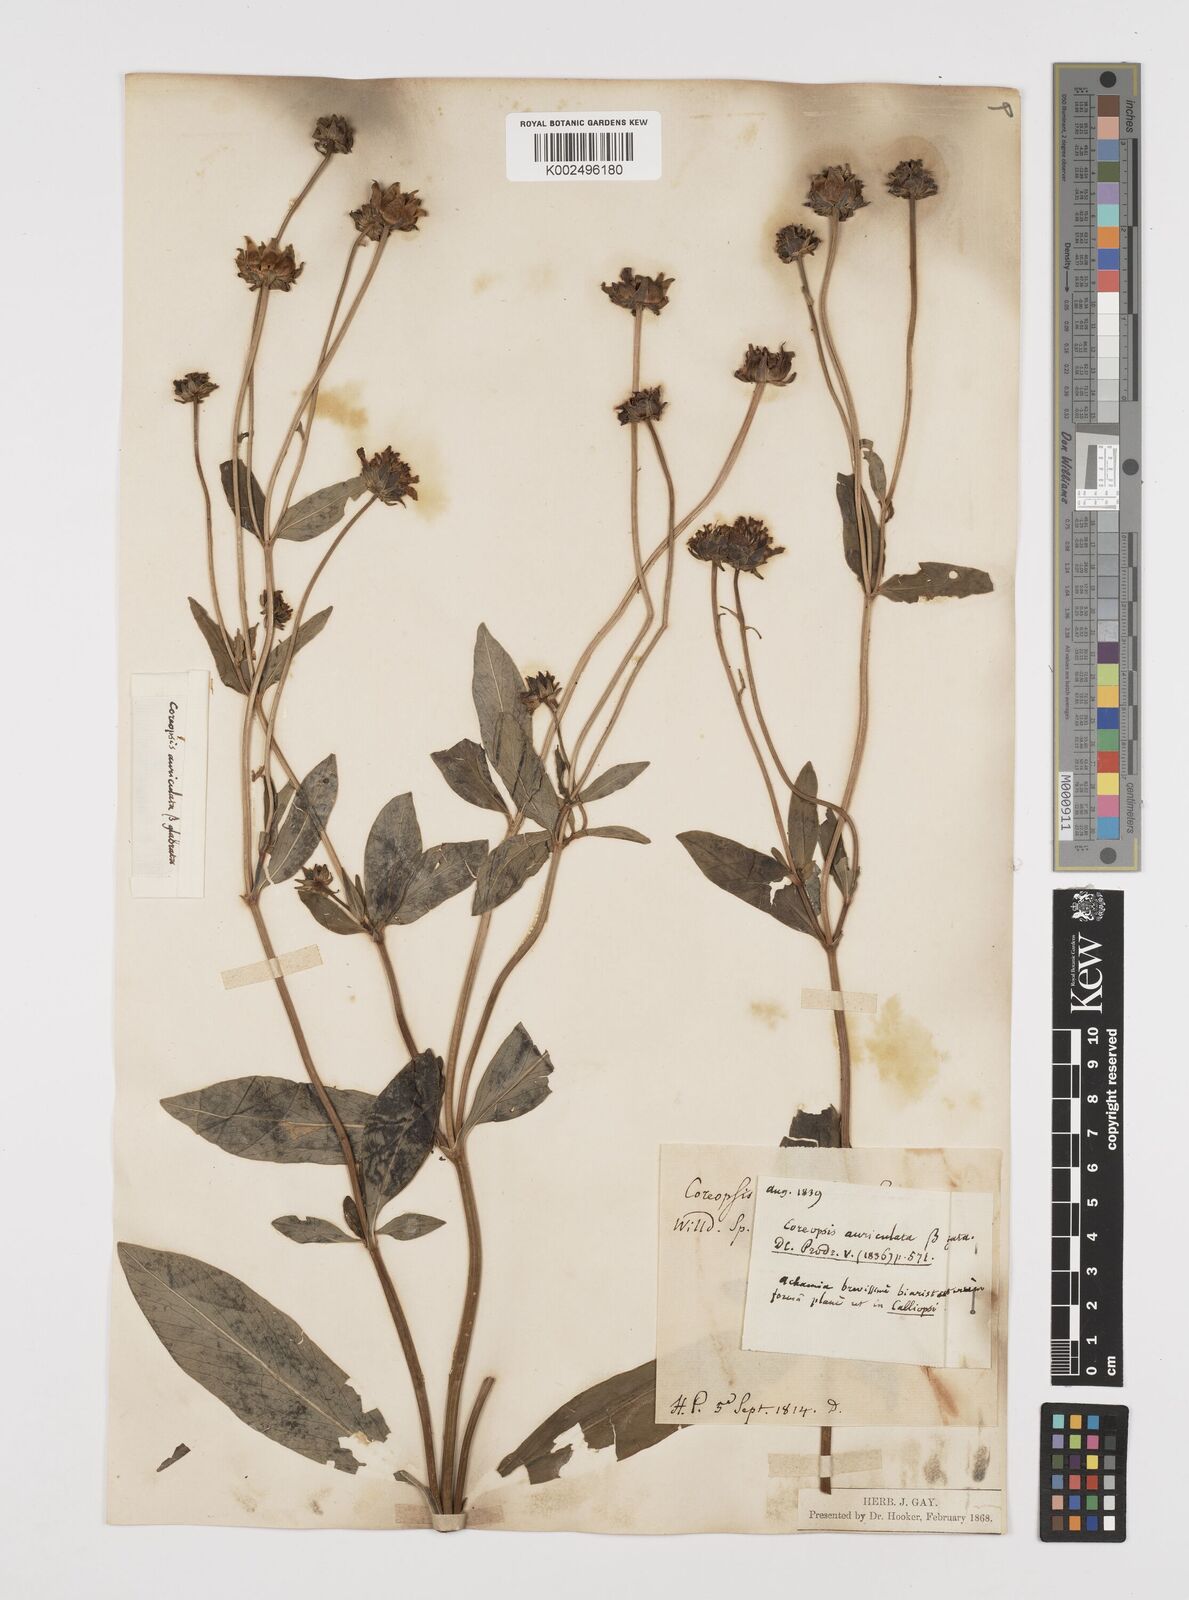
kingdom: Plantae
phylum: Tracheophyta
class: Magnoliopsida
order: Asterales
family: Asteraceae
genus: Coreopsis
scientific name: Coreopsis pubescens
